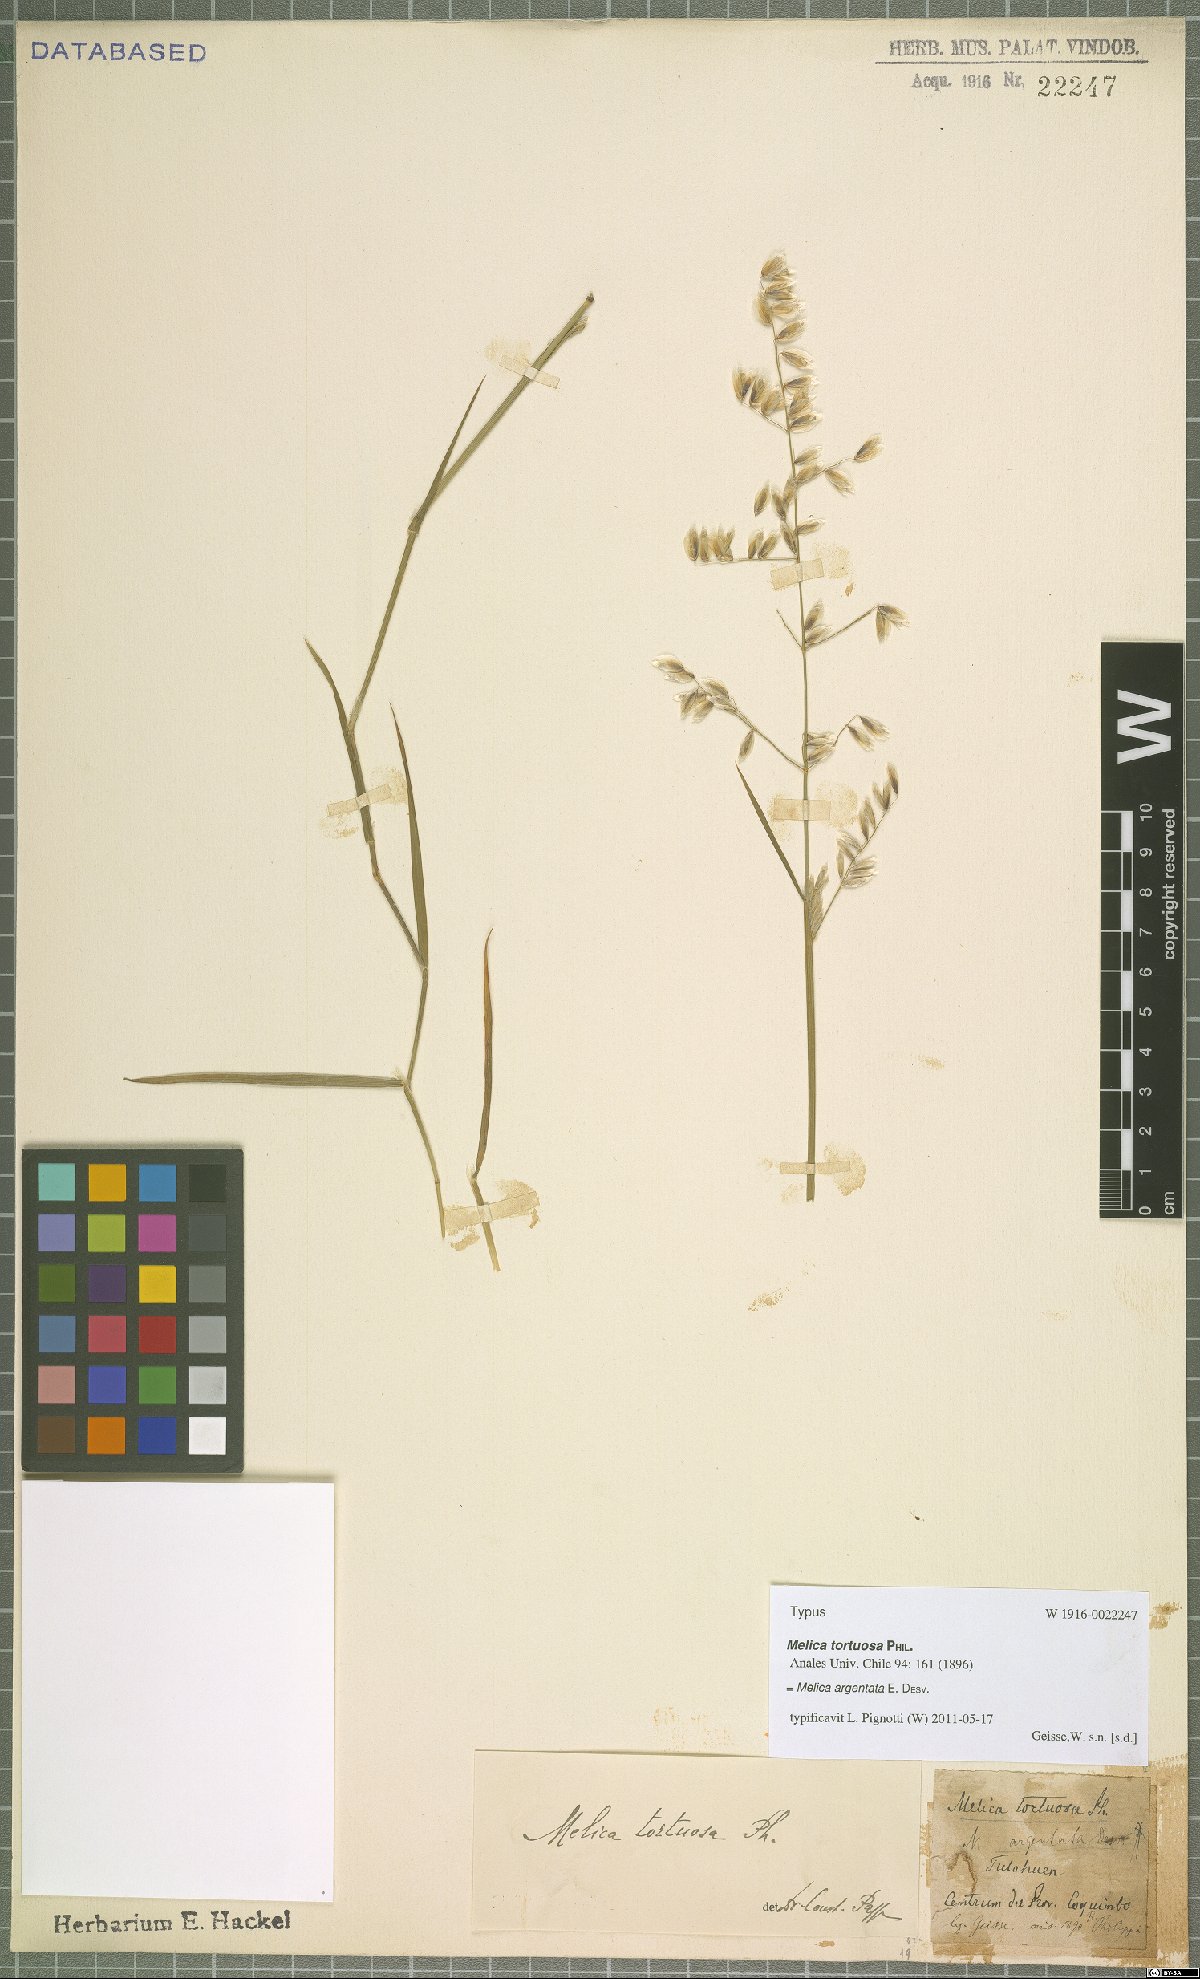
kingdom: Plantae
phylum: Tracheophyta
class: Liliopsida
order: Poales
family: Poaceae
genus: Melica
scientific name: Melica argentata
